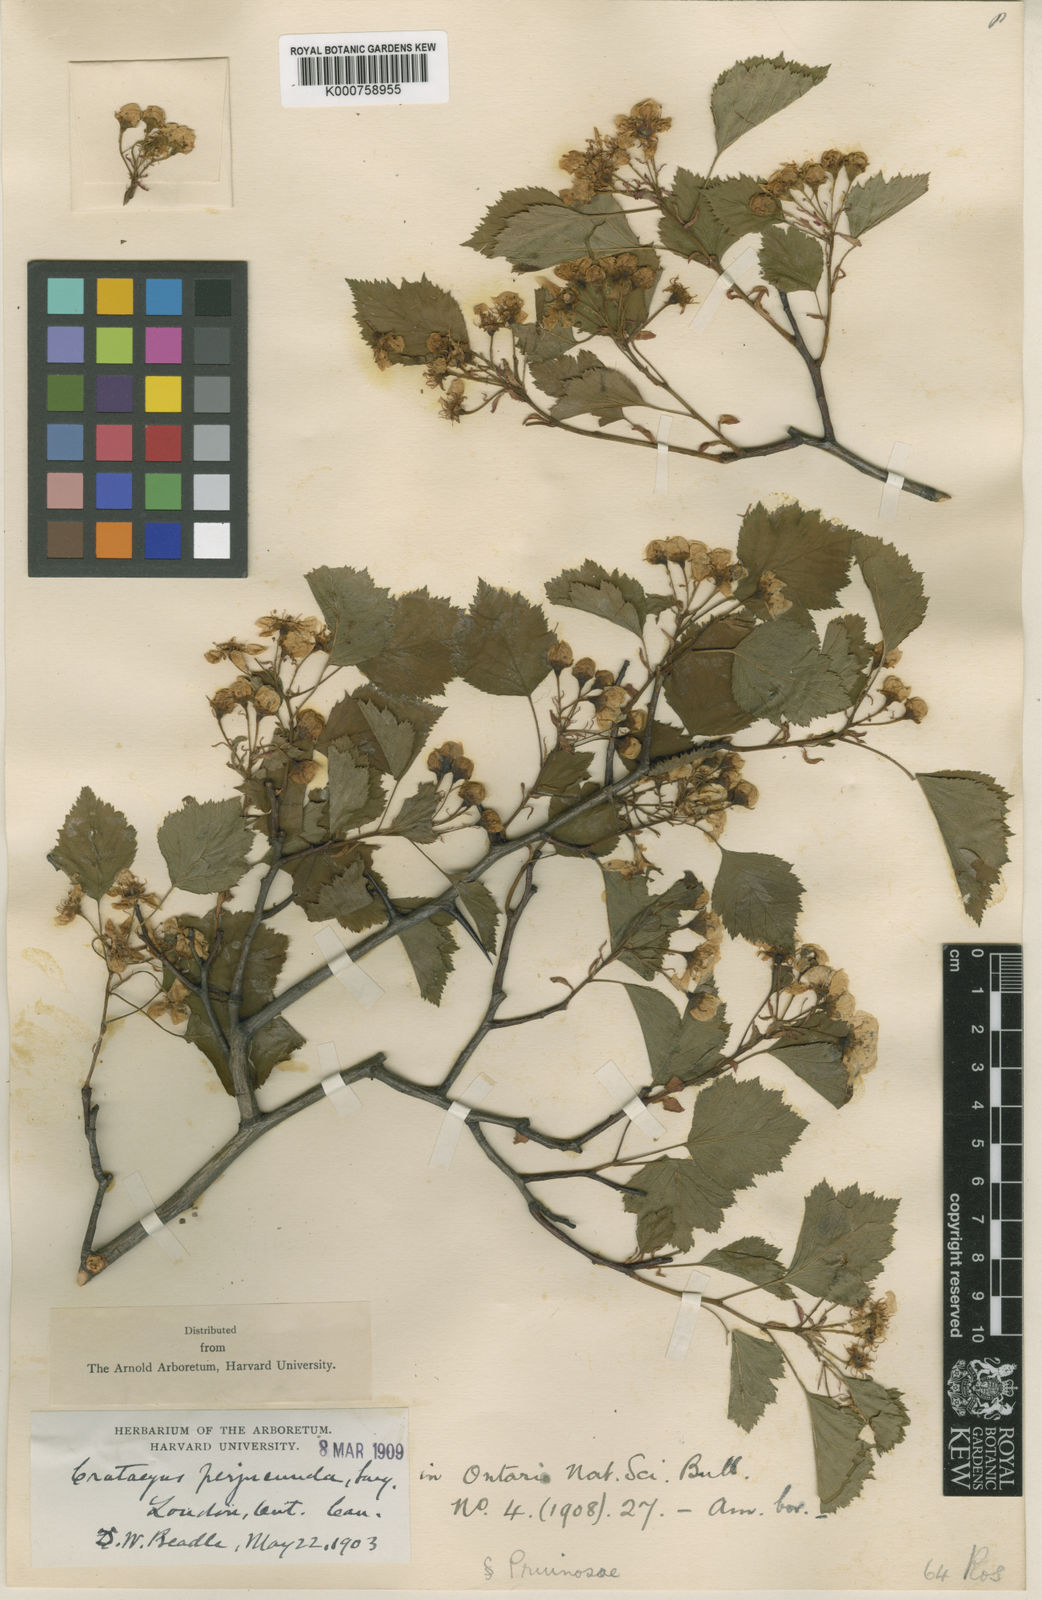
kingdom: Plantae
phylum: Tracheophyta
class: Magnoliopsida
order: Rosales
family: Rosaceae
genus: Crataegus
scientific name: Crataegus cognata
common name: Cognate hawthorn
